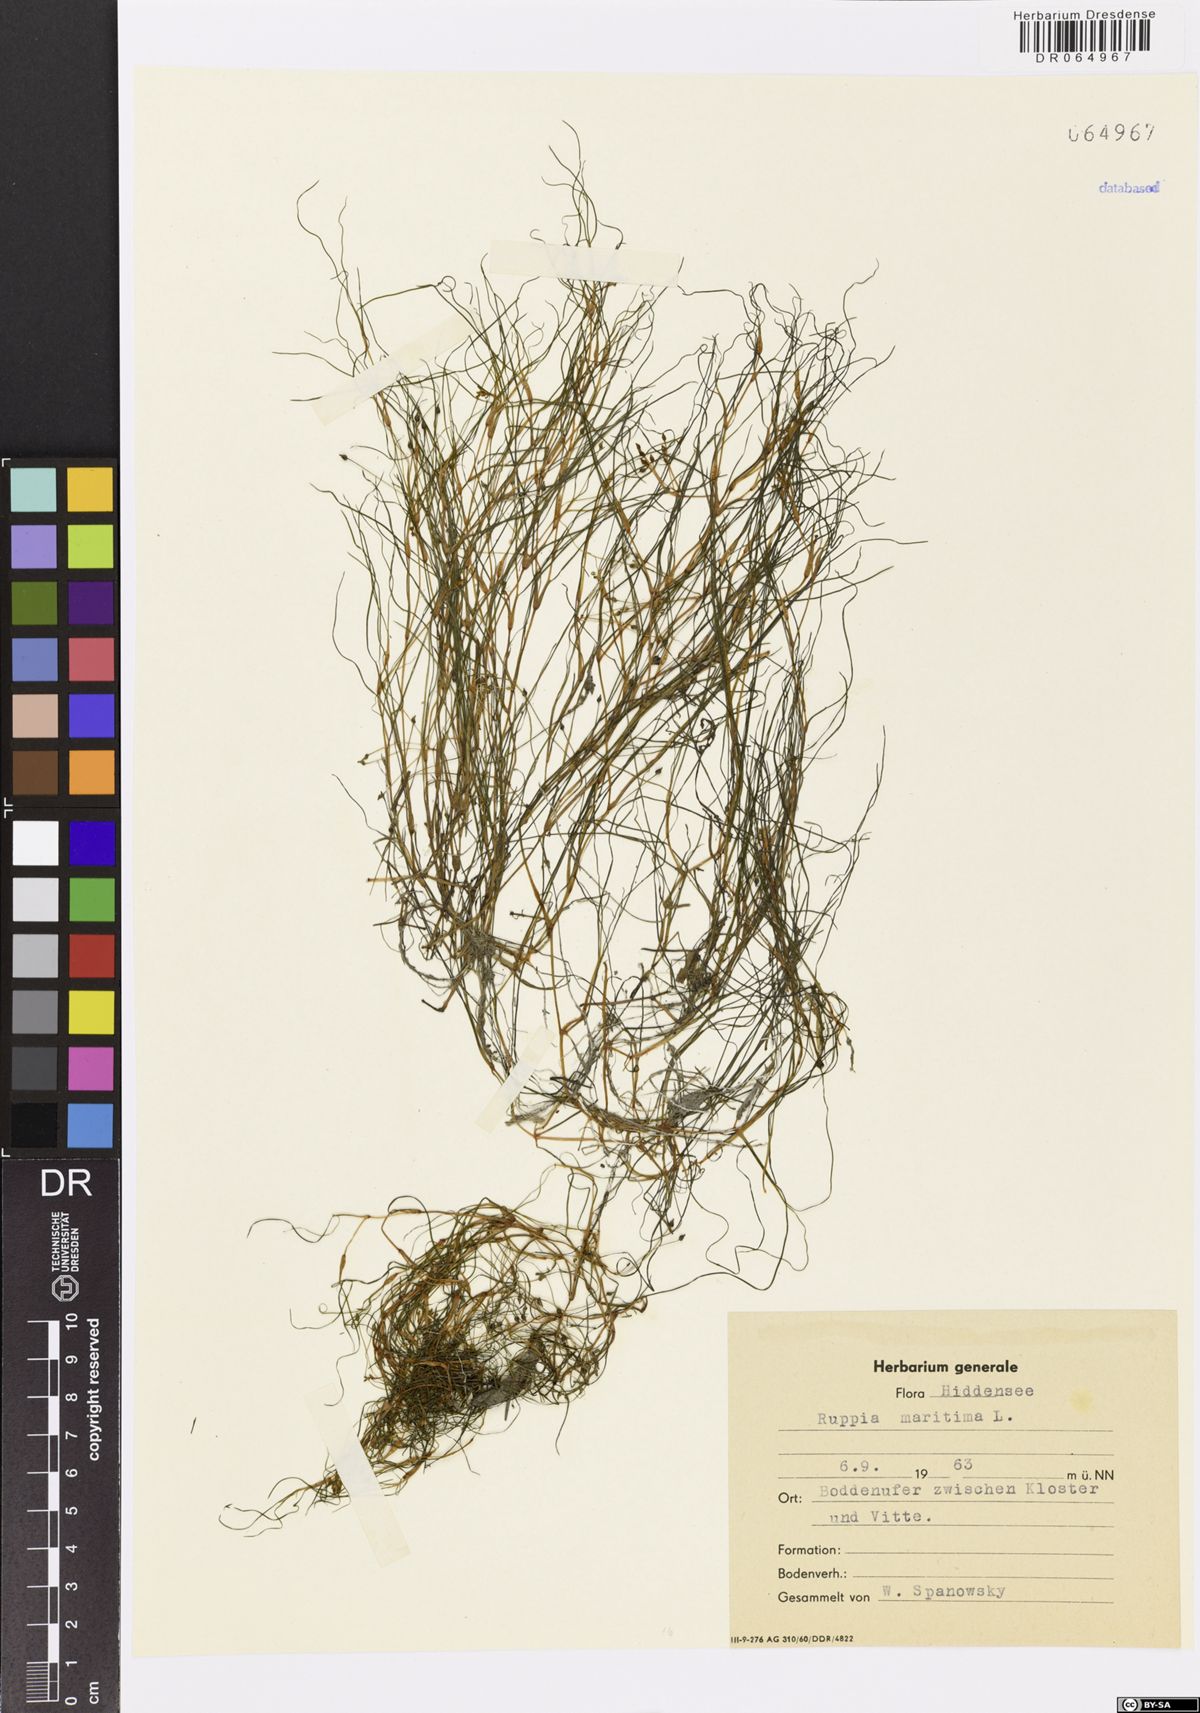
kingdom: Plantae
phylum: Tracheophyta
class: Liliopsida
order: Alismatales
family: Ruppiaceae
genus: Ruppia
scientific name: Ruppia maritima
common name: Beaked tasselweed
